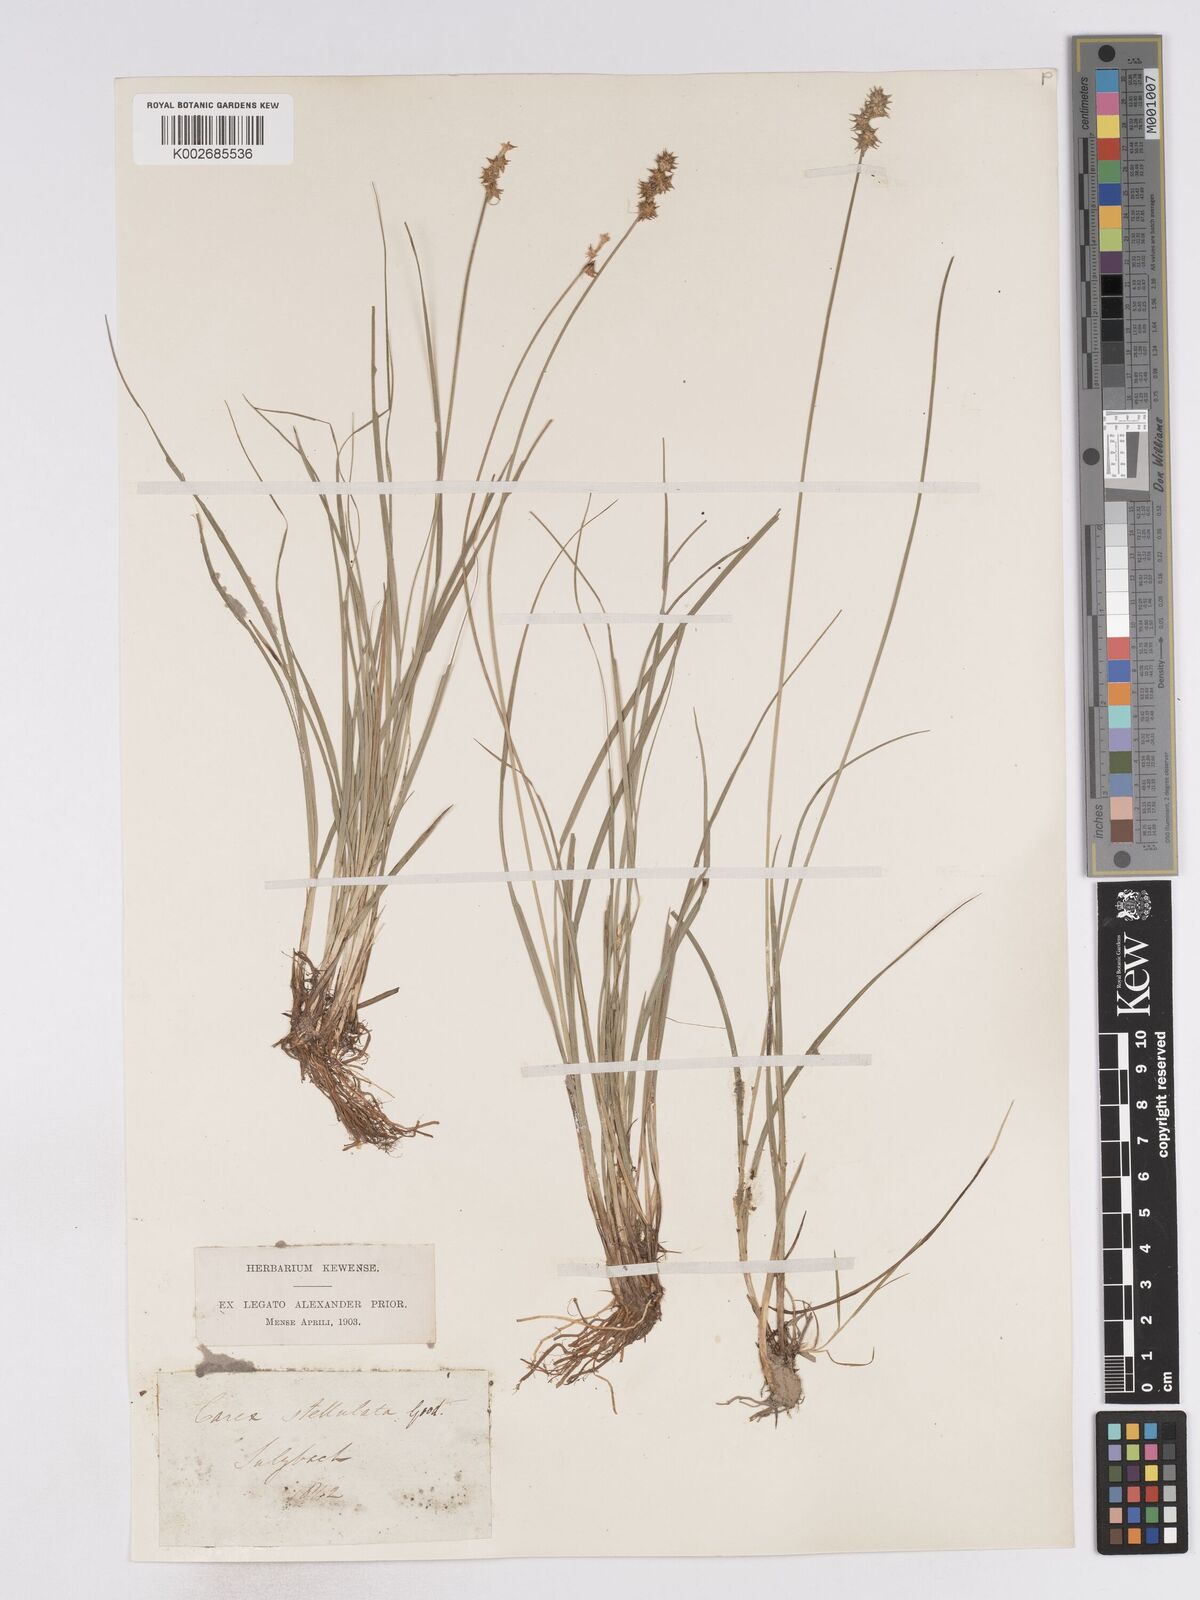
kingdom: Plantae
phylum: Tracheophyta
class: Liliopsida
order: Poales
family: Cyperaceae
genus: Carex
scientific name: Carex echinata
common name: Star sedge
